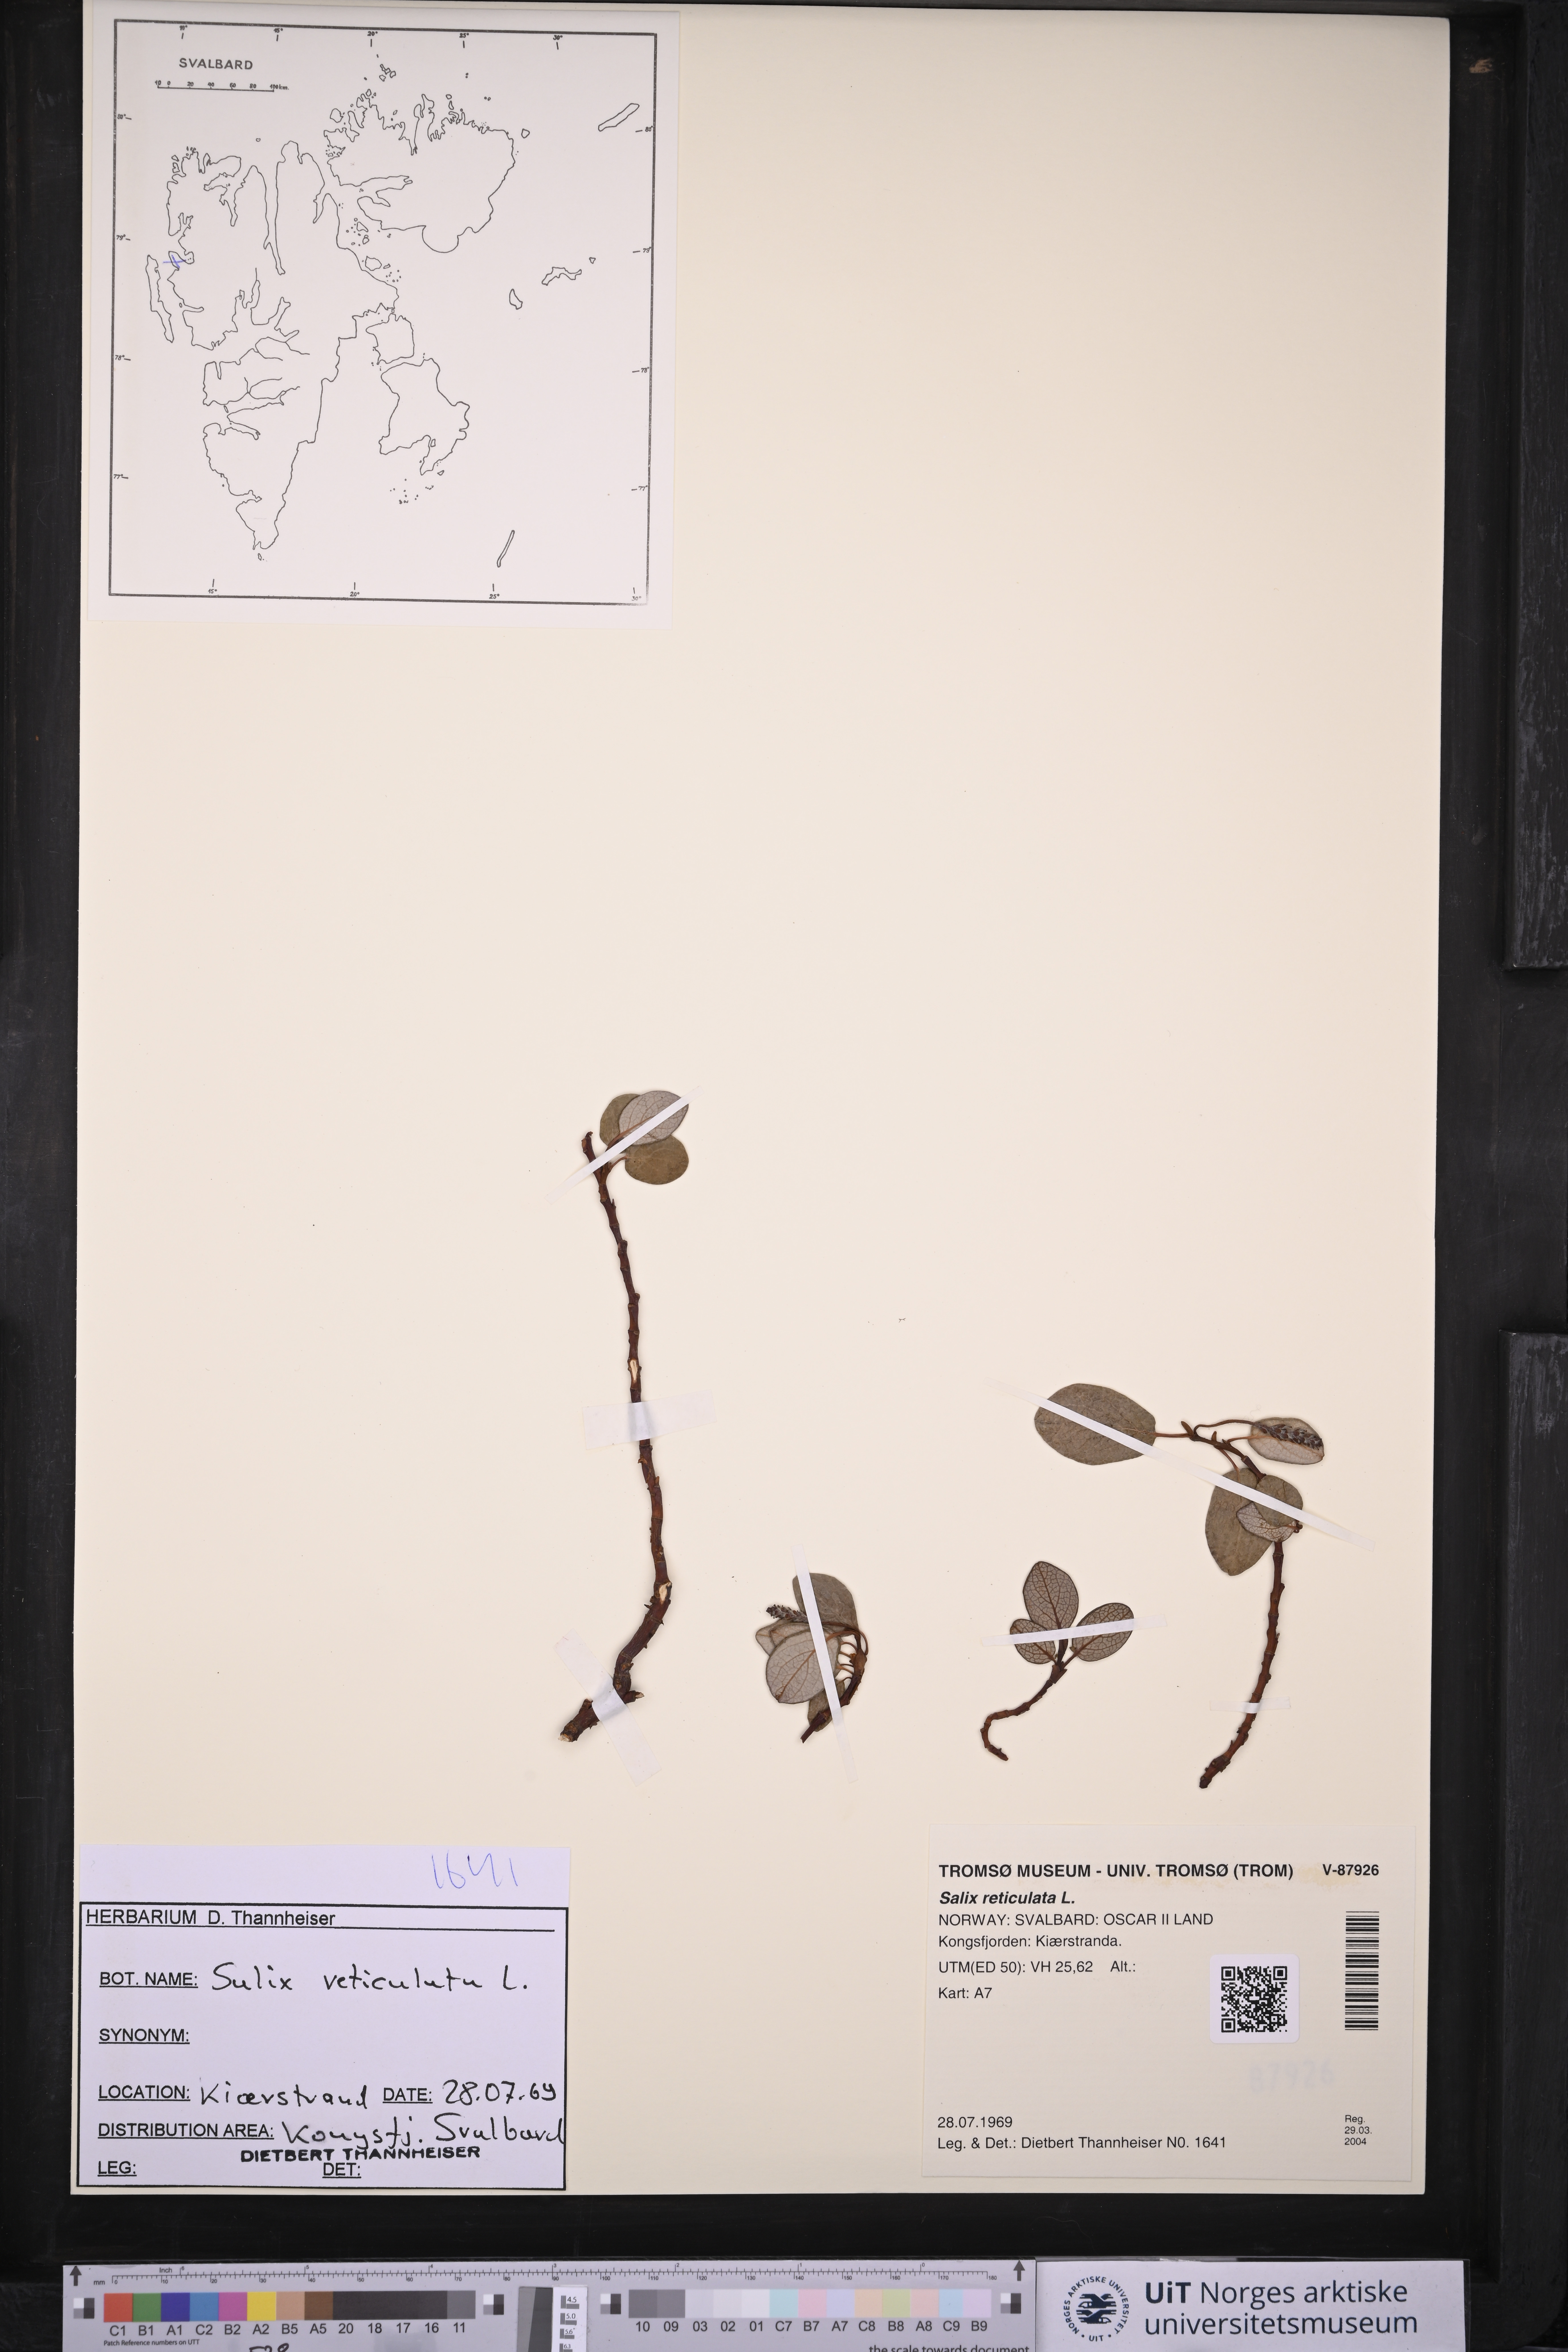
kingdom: Plantae
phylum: Tracheophyta
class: Magnoliopsida
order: Malpighiales
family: Salicaceae
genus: Salix
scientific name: Salix reticulata
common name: Net-leaved willow
